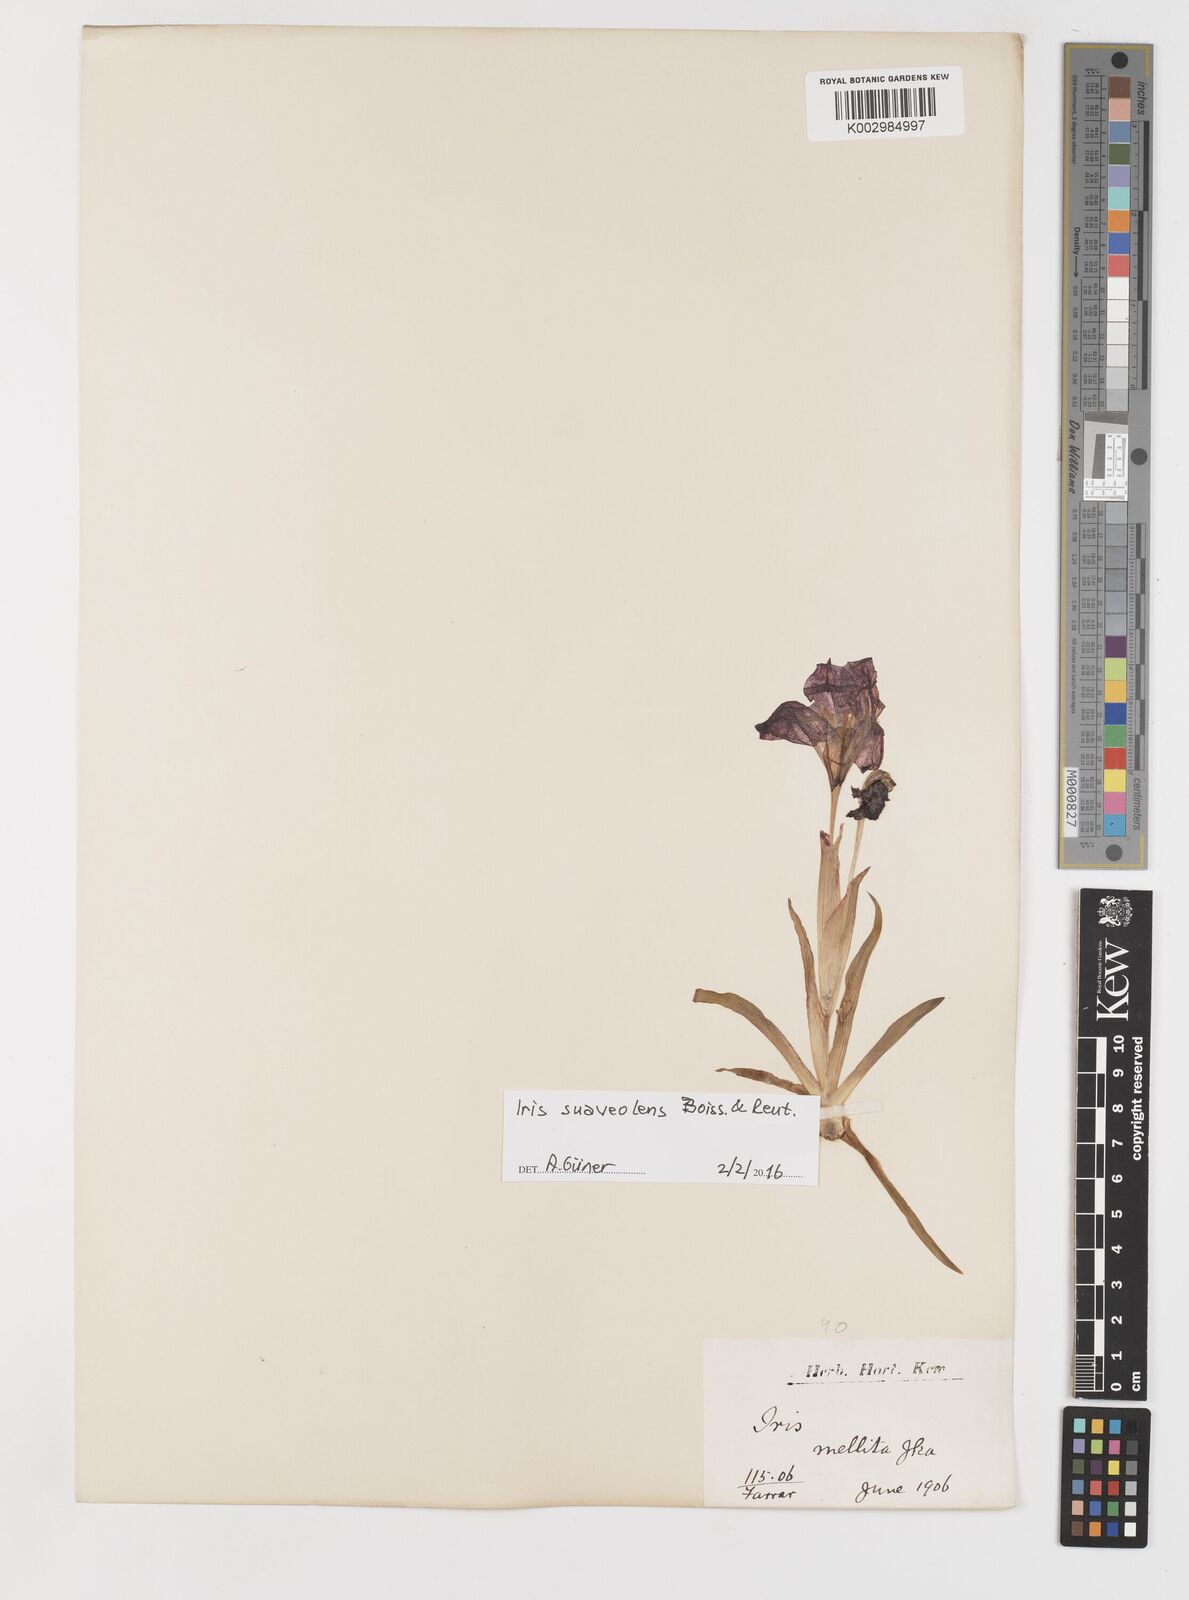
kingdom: Plantae
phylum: Tracheophyta
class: Liliopsida
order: Asparagales
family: Iridaceae
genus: Iris
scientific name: Iris suaveolens
